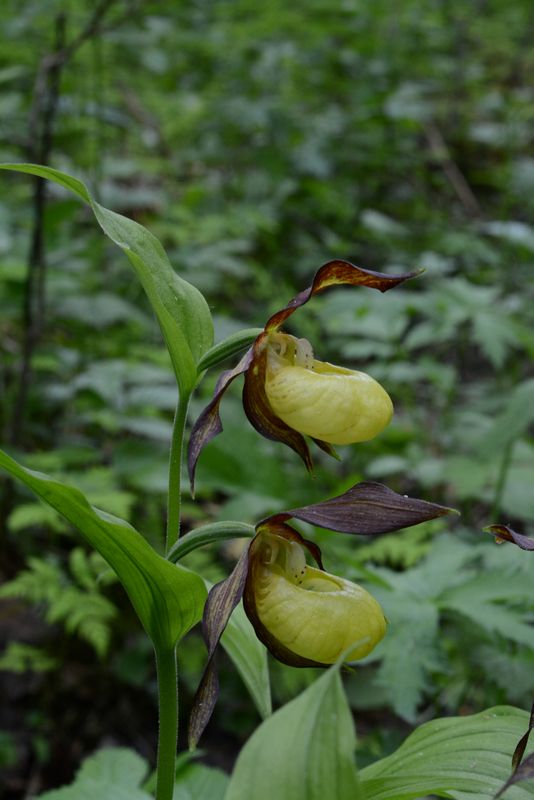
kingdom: Plantae
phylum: Tracheophyta
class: Liliopsida
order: Asparagales
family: Orchidaceae
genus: Cypripedium
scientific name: Cypripedium calceolus
